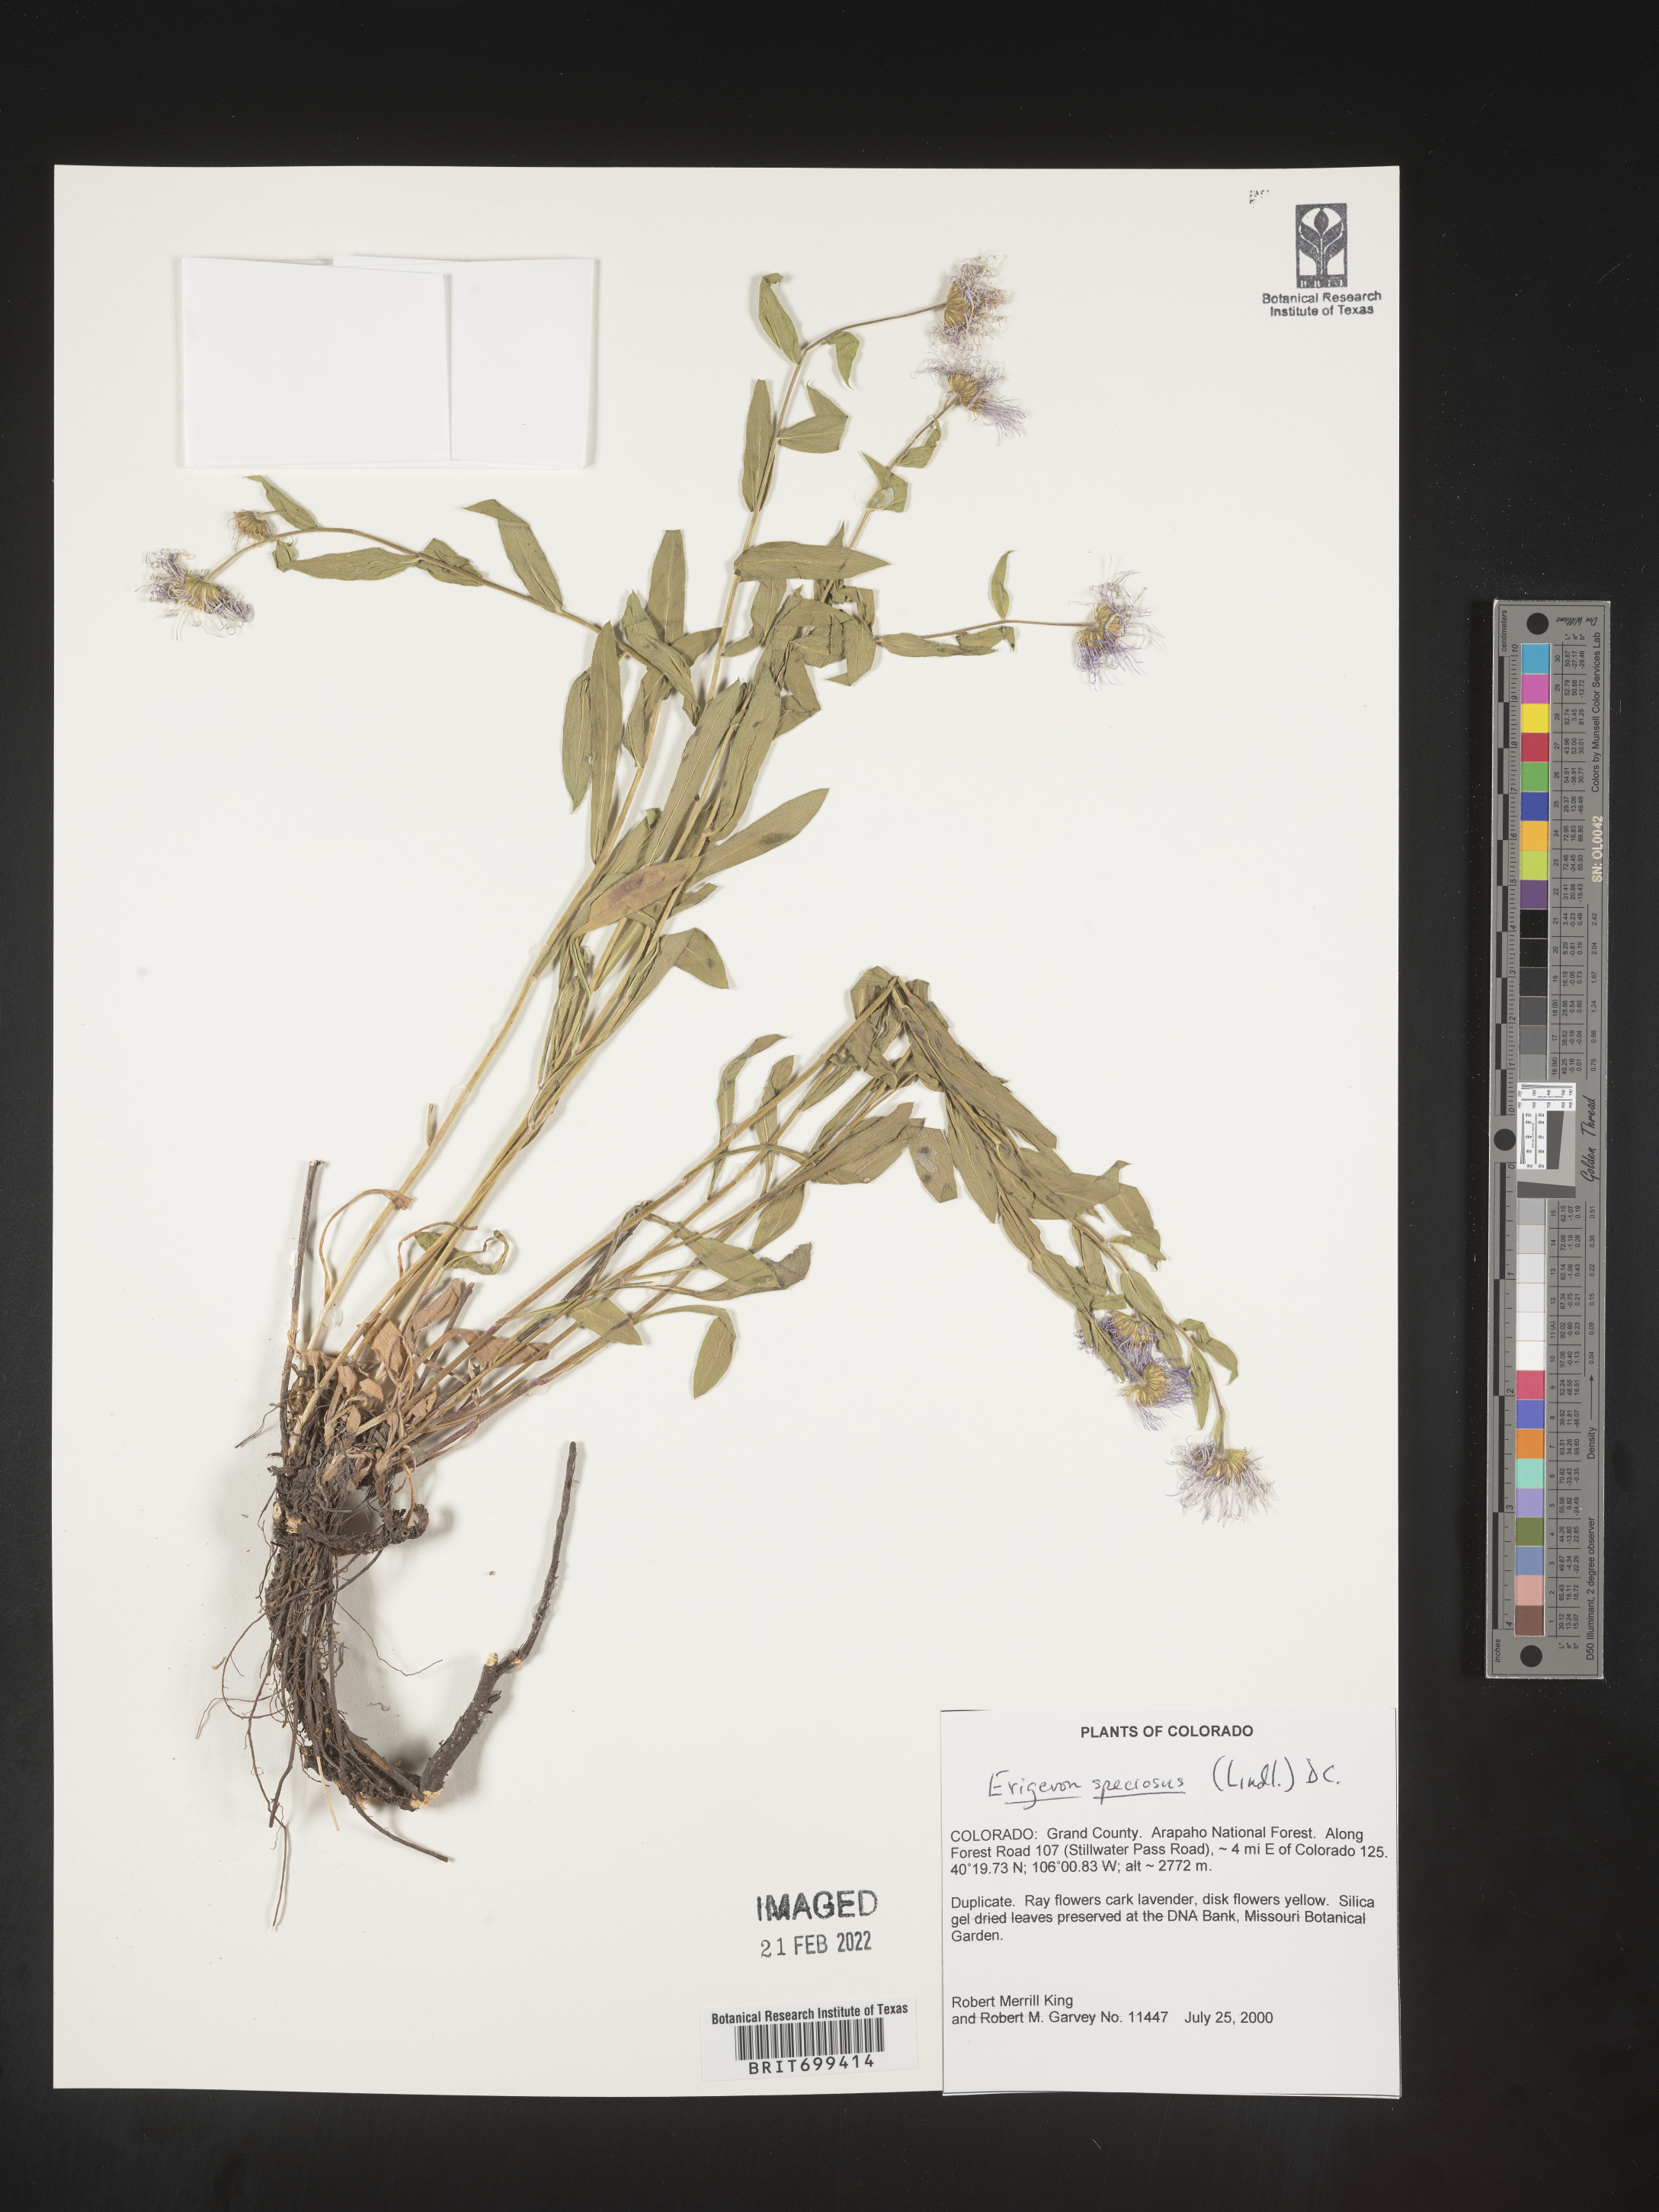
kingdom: Plantae
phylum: Tracheophyta
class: Magnoliopsida
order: Asterales
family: Asteraceae
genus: Erigeron
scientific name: Erigeron speciosus
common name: Aspen fleabane
